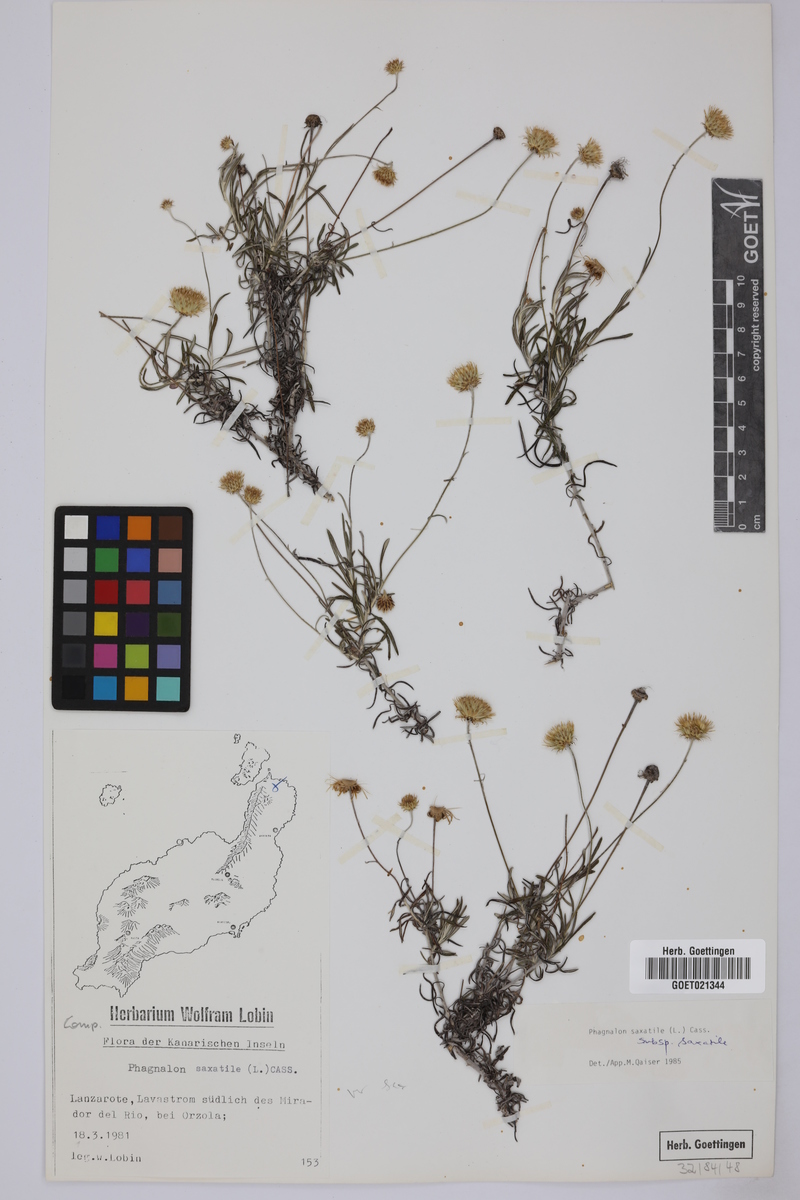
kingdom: Plantae
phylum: Tracheophyta
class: Magnoliopsida
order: Asterales
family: Asteraceae
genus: Phagnalon
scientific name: Phagnalon saxatile
